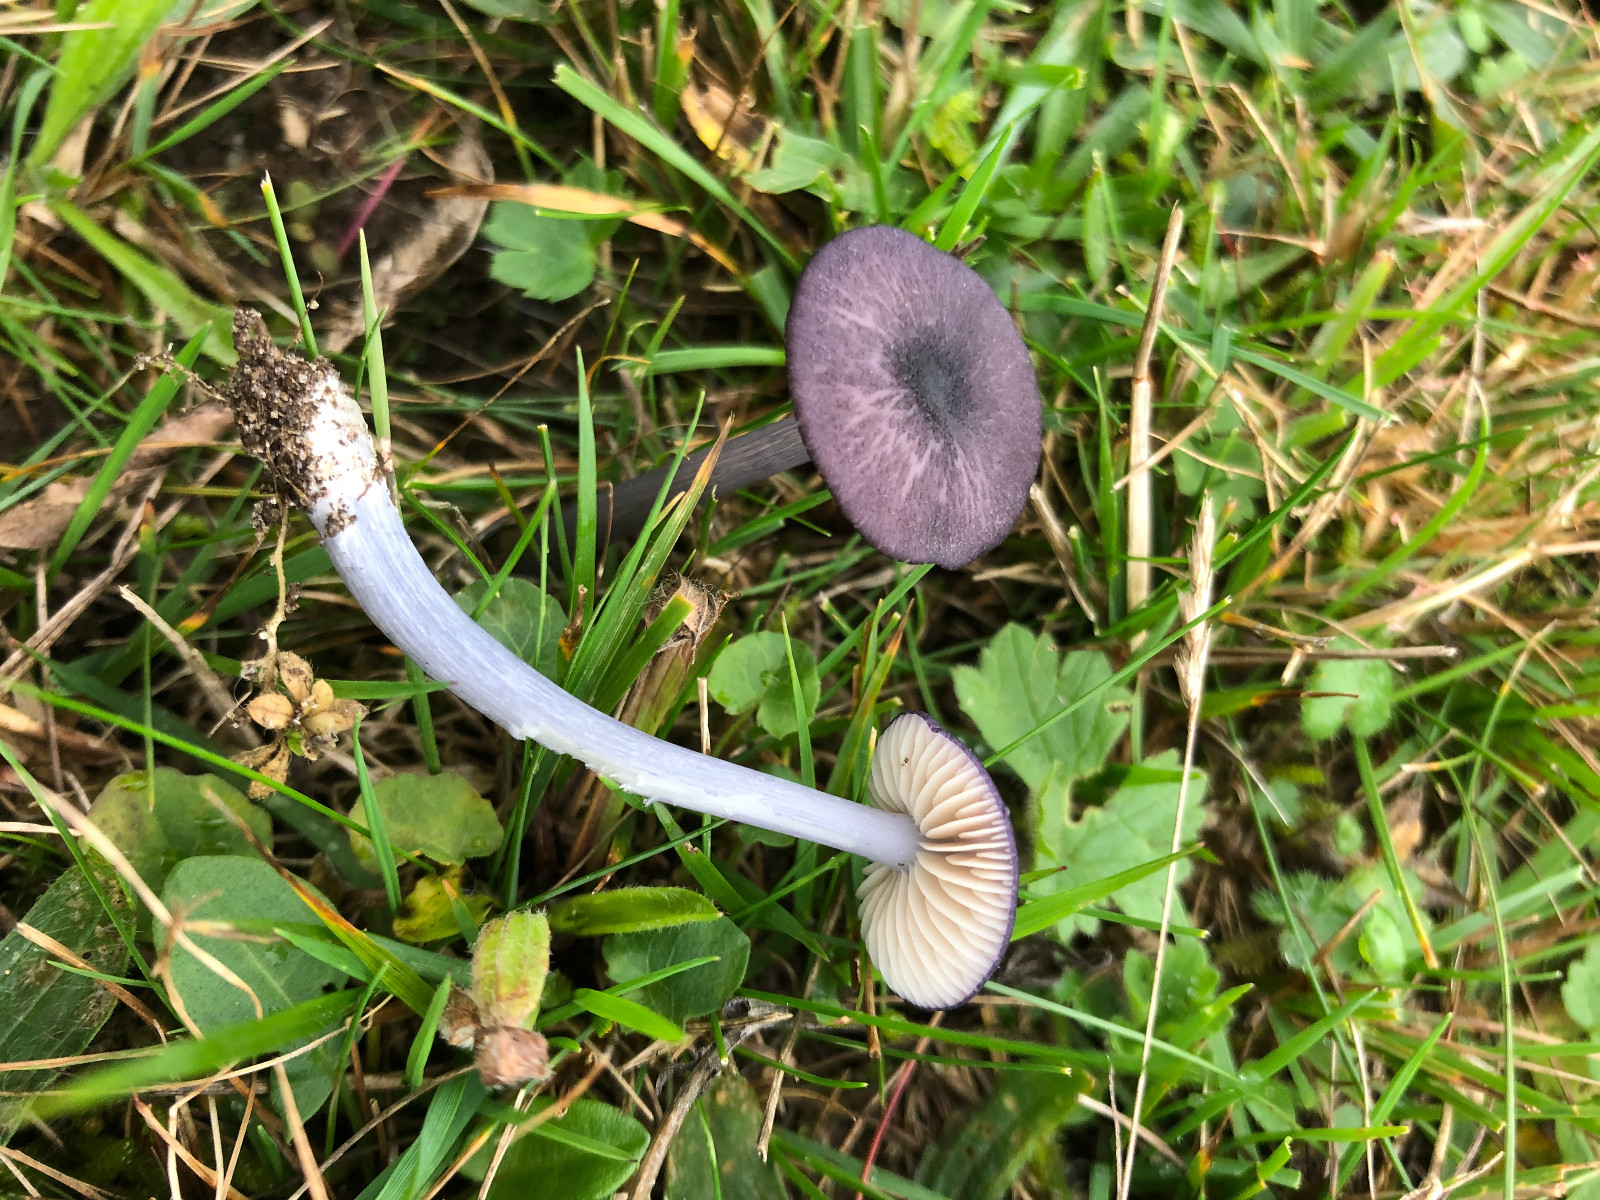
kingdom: Fungi
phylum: Basidiomycota
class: Agaricomycetes
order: Agaricales
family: Entolomataceae
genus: Entoloma
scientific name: Entoloma viiduense
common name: purpurbrun rødblad
